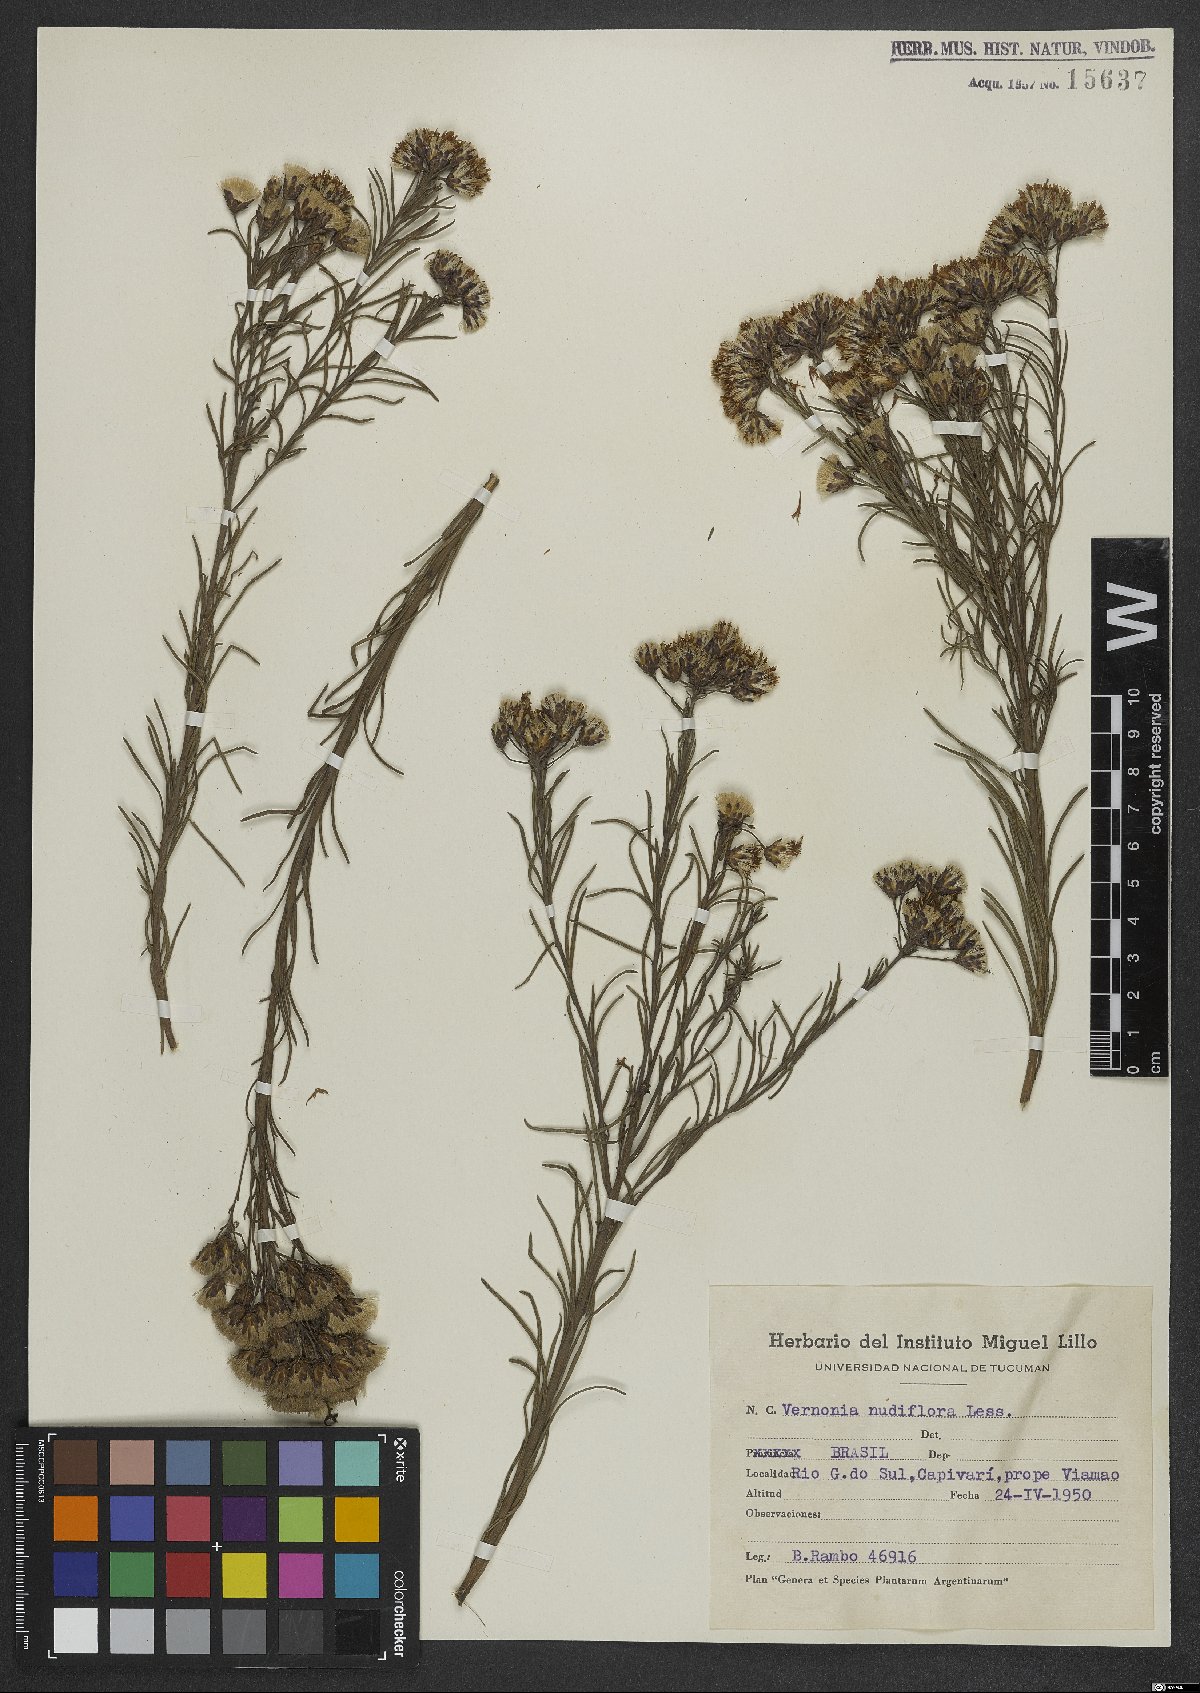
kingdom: Plantae
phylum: Tracheophyta
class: Magnoliopsida
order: Asterales
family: Asteraceae
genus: Vernonanthura
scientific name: Vernonanthura nudiflora
